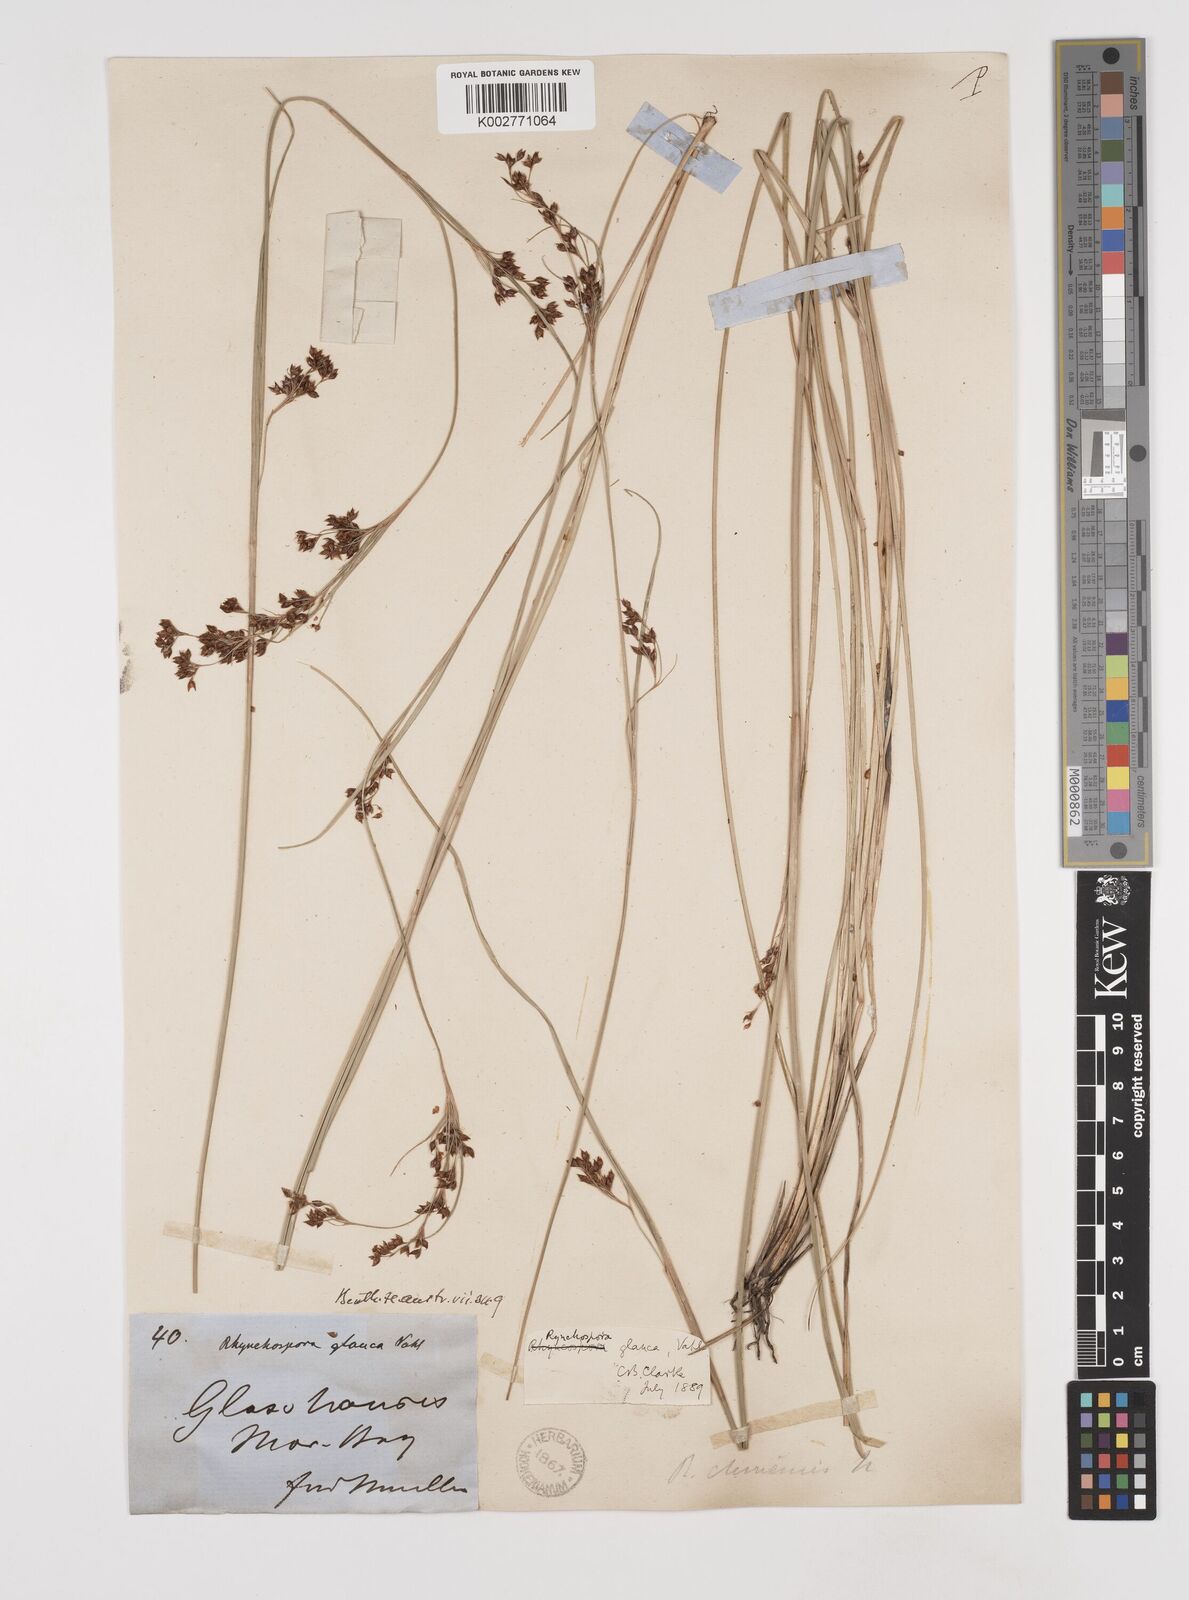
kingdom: Plantae
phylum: Tracheophyta
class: Liliopsida
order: Poales
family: Cyperaceae
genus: Rhynchospora
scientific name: Rhynchospora rugosa
